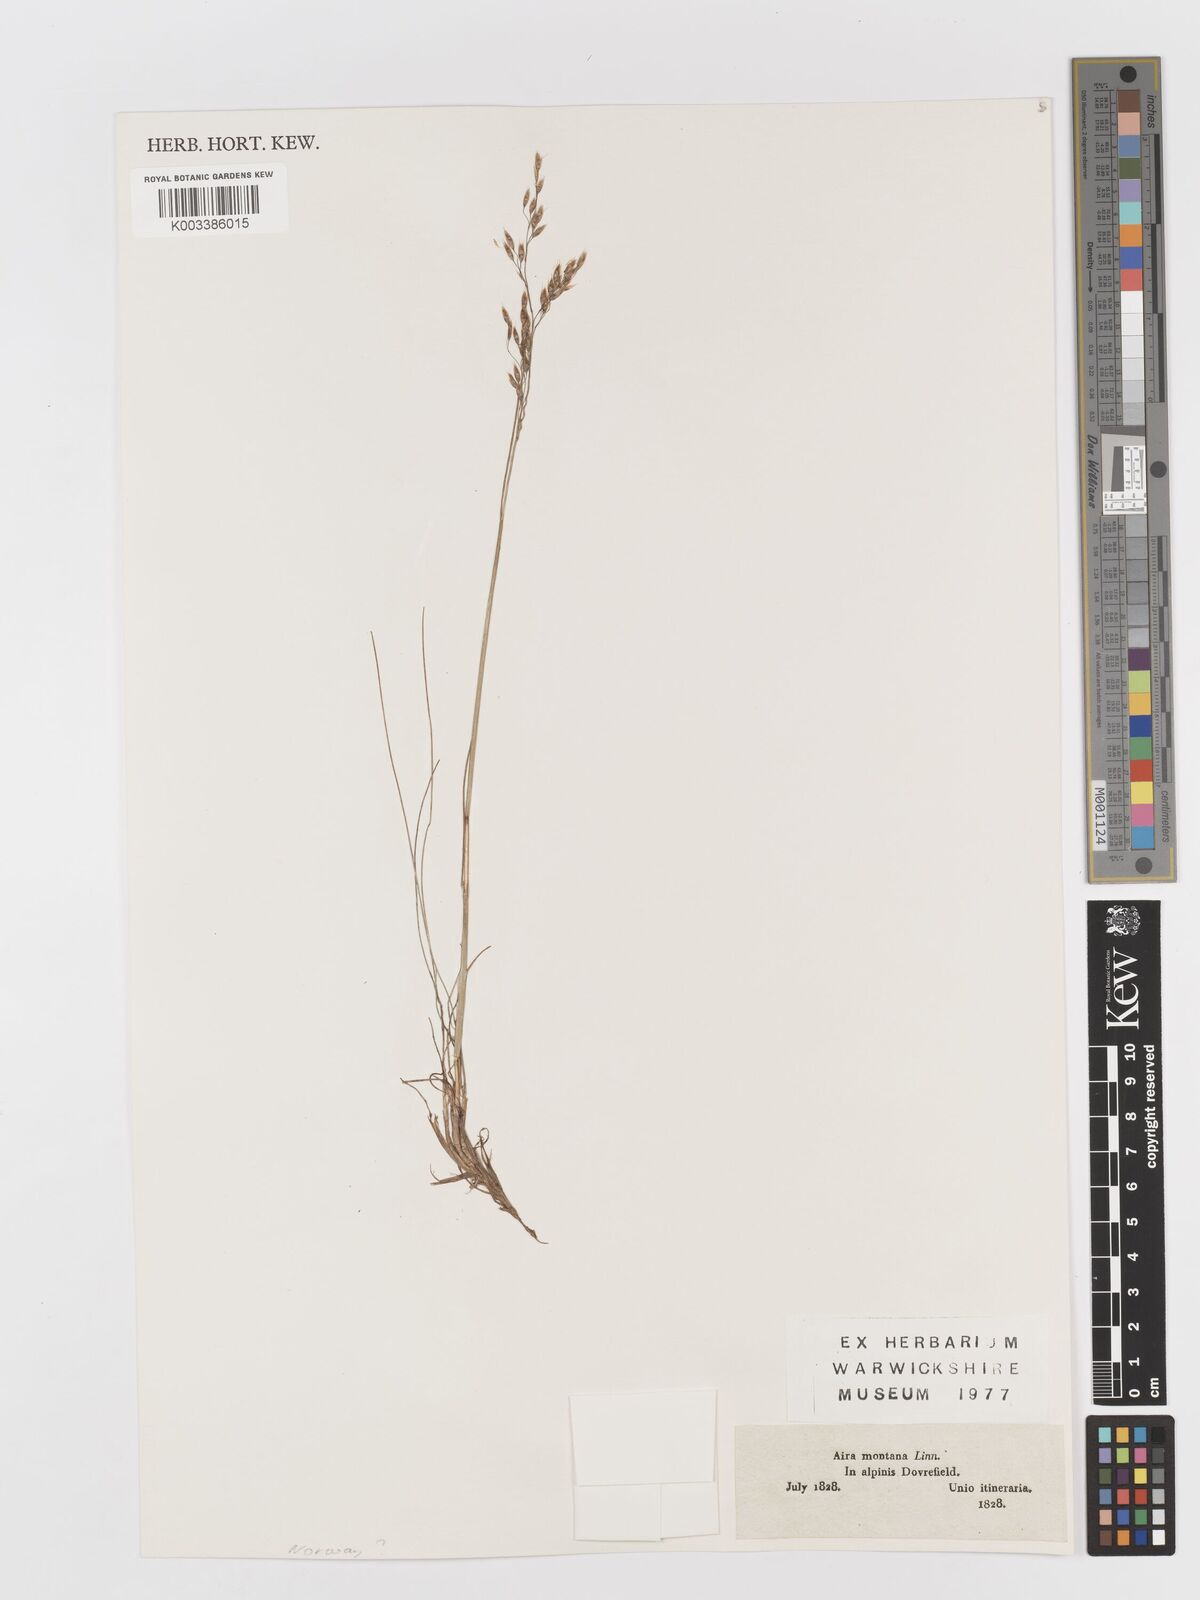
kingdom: Plantae
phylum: Tracheophyta
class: Liliopsida
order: Poales
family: Poaceae
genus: Avenella
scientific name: Avenella flexuosa
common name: Wavy hairgrass
